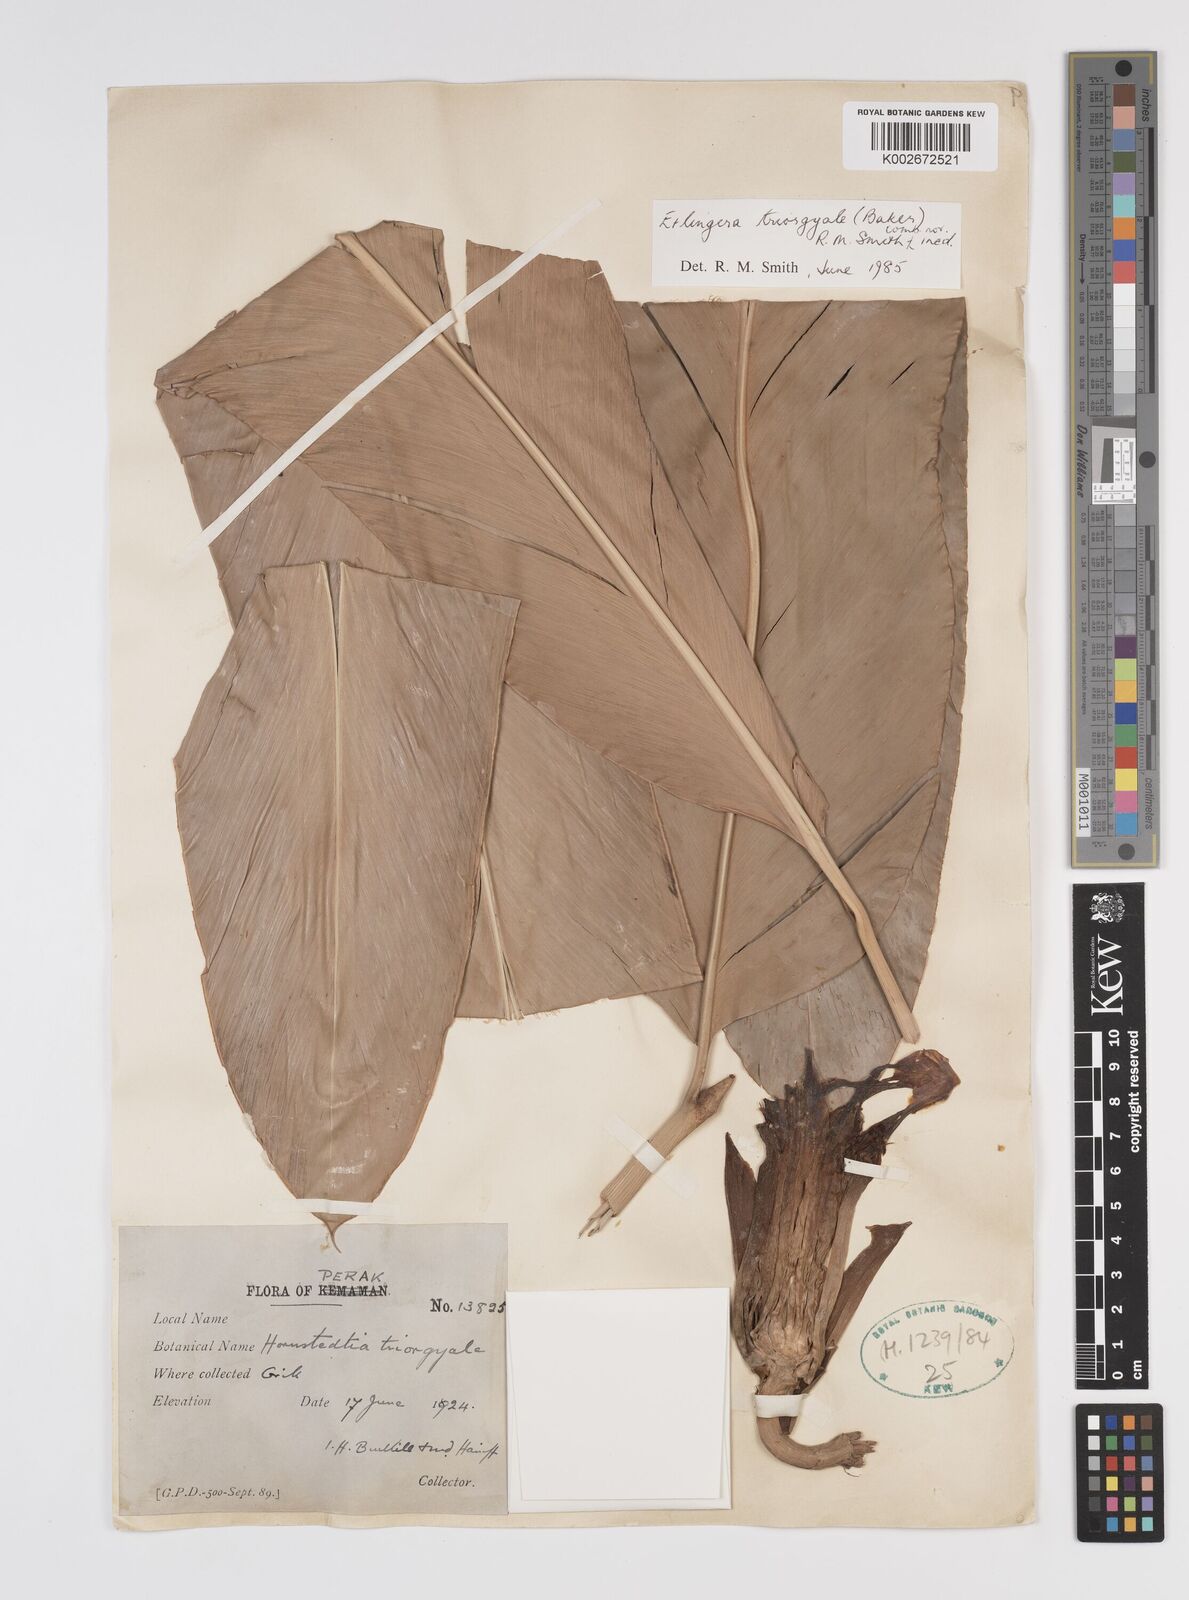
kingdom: Plantae
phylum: Tracheophyta
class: Liliopsida
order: Zingiberales
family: Zingiberaceae
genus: Etlingera
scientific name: Etlingera triorgyalis
